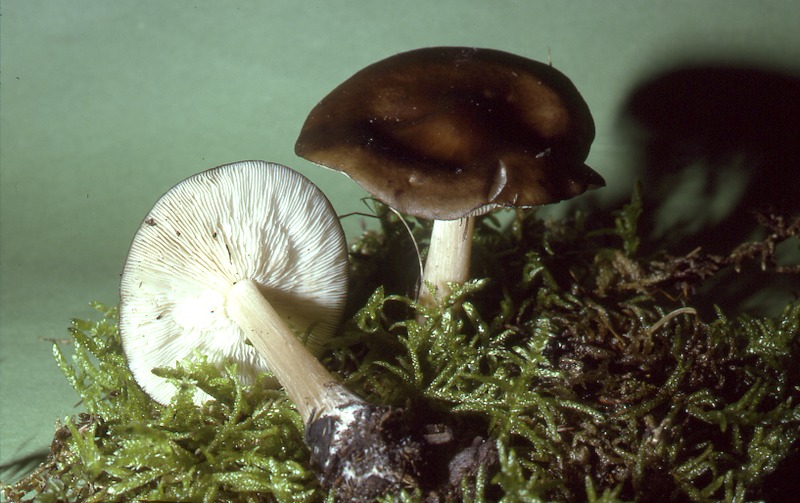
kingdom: Fungi
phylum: Basidiomycota
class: Agaricomycetes
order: Agaricales
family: Tricholomataceae
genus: Melanoleuca
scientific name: Melanoleuca melaleuca
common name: Bald cavalier
